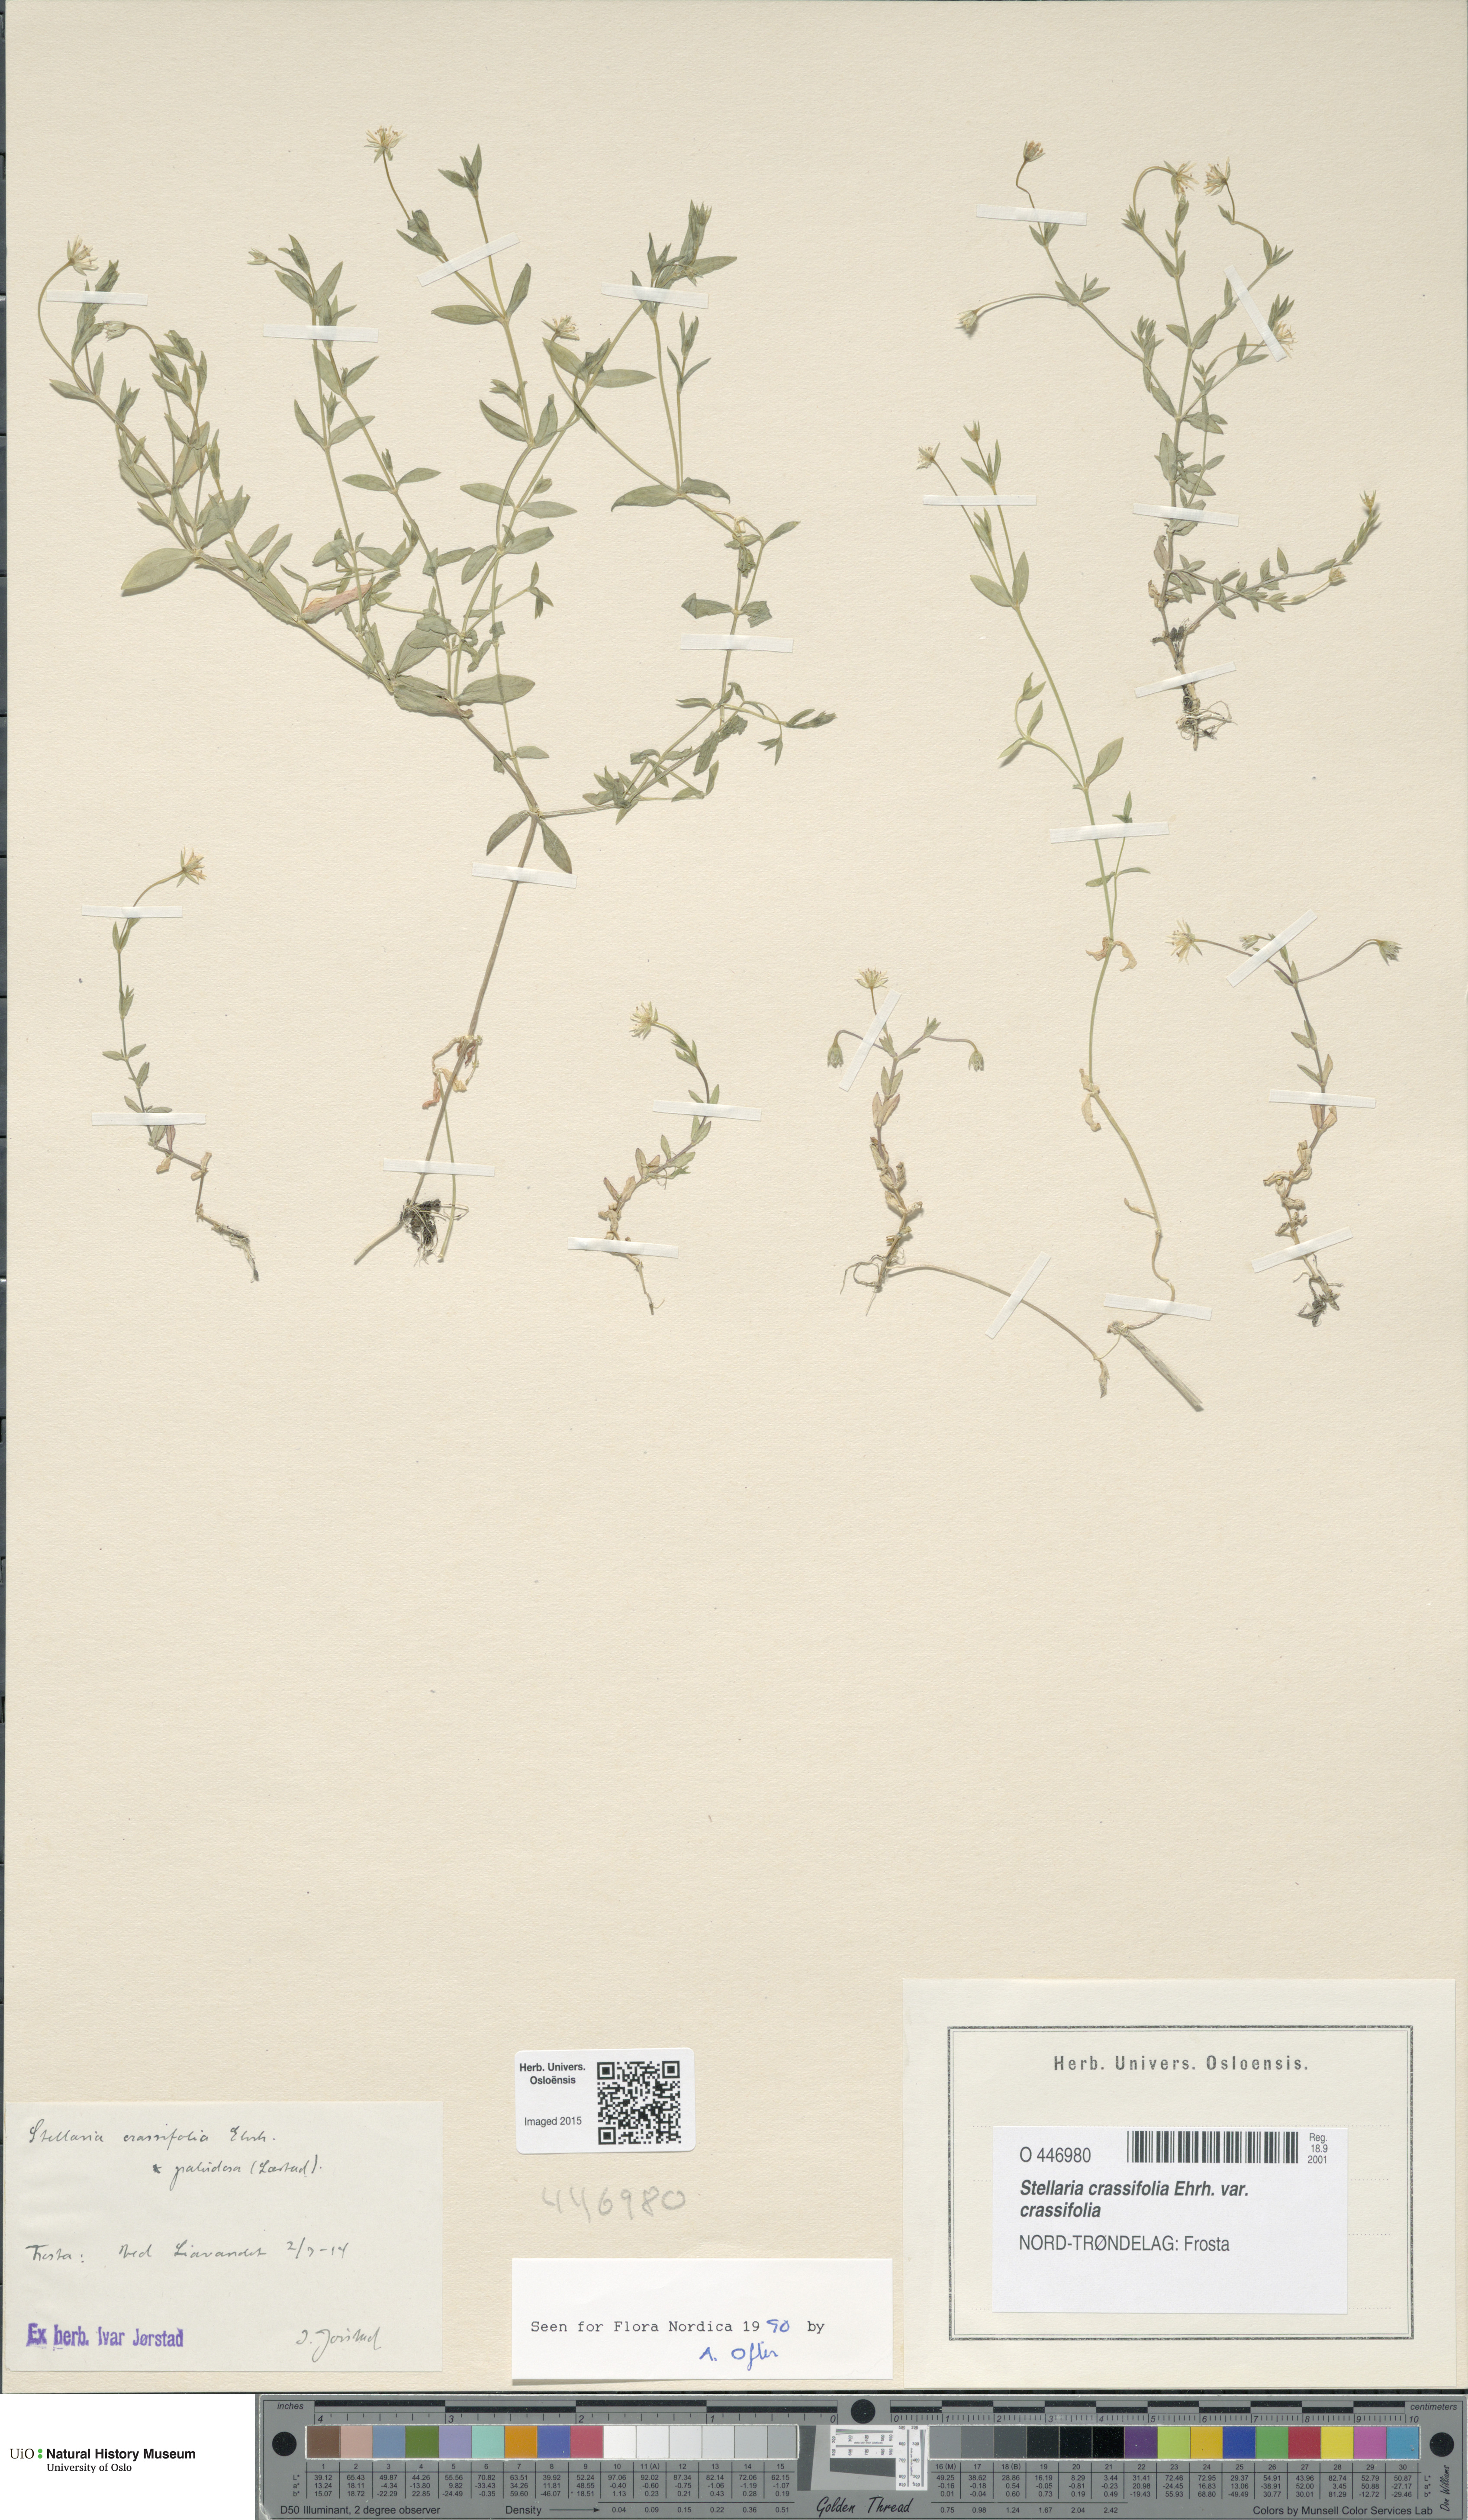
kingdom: Plantae
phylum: Tracheophyta
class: Magnoliopsida
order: Caryophyllales
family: Caryophyllaceae
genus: Stellaria
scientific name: Stellaria crassifolia
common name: Fleshy starwort
